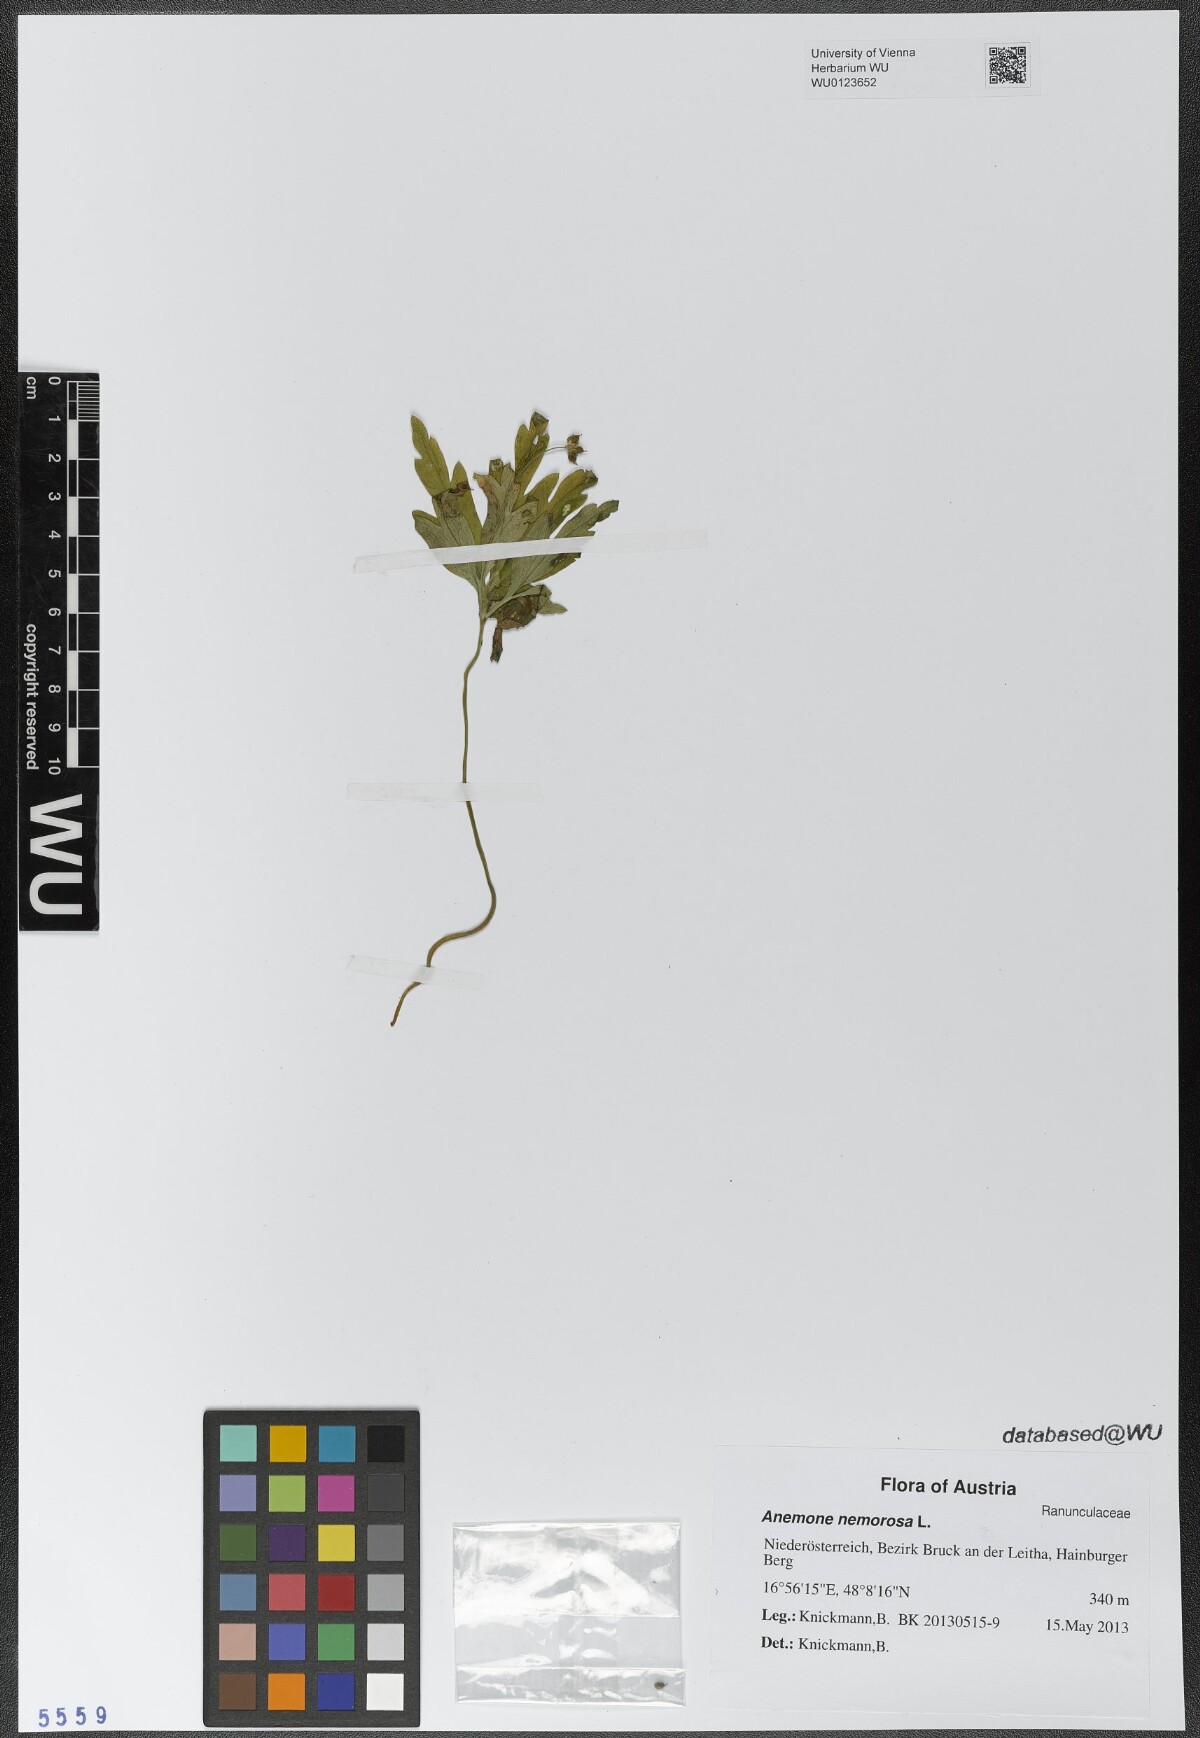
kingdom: Plantae
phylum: Tracheophyta
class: Magnoliopsida
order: Ranunculales
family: Ranunculaceae
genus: Anemone
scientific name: Anemone nemorosa
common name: Wood anemone
